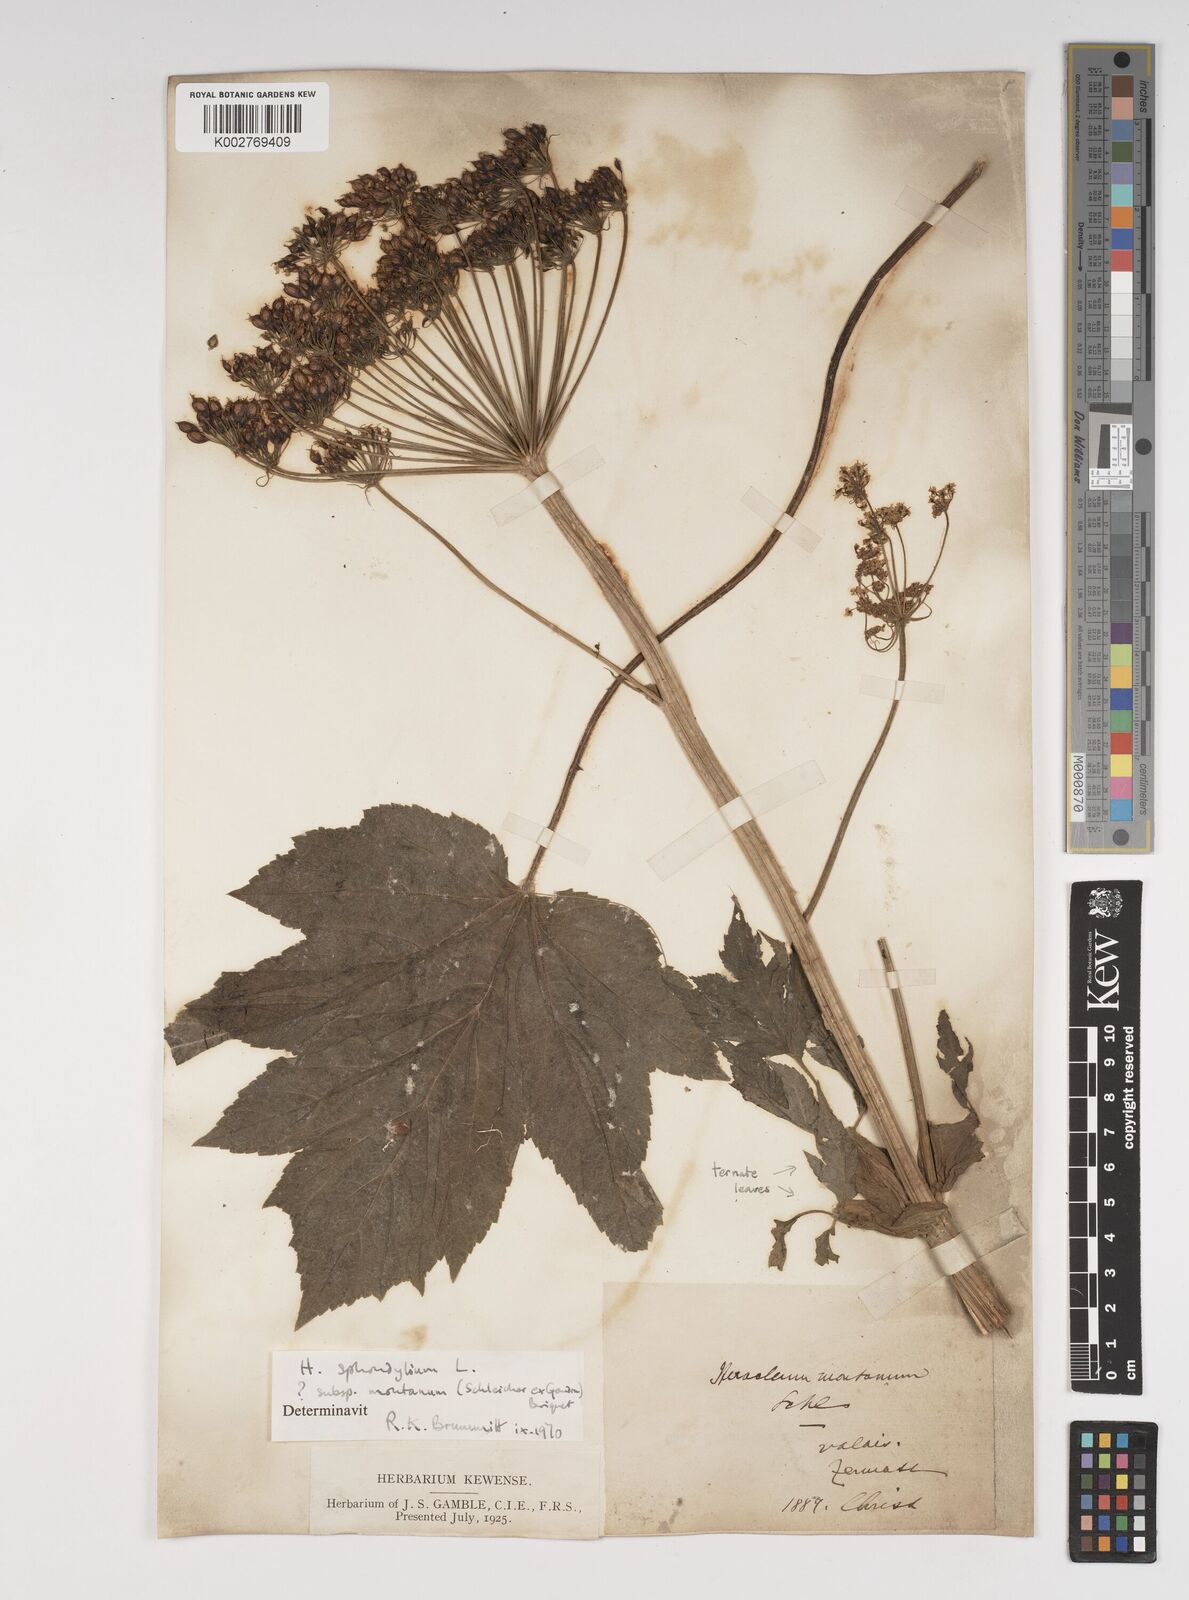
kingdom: Plantae
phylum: Tracheophyta
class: Magnoliopsida
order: Apiales
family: Apiaceae
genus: Heracleum
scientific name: Heracleum sphondylium
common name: Hogweed
